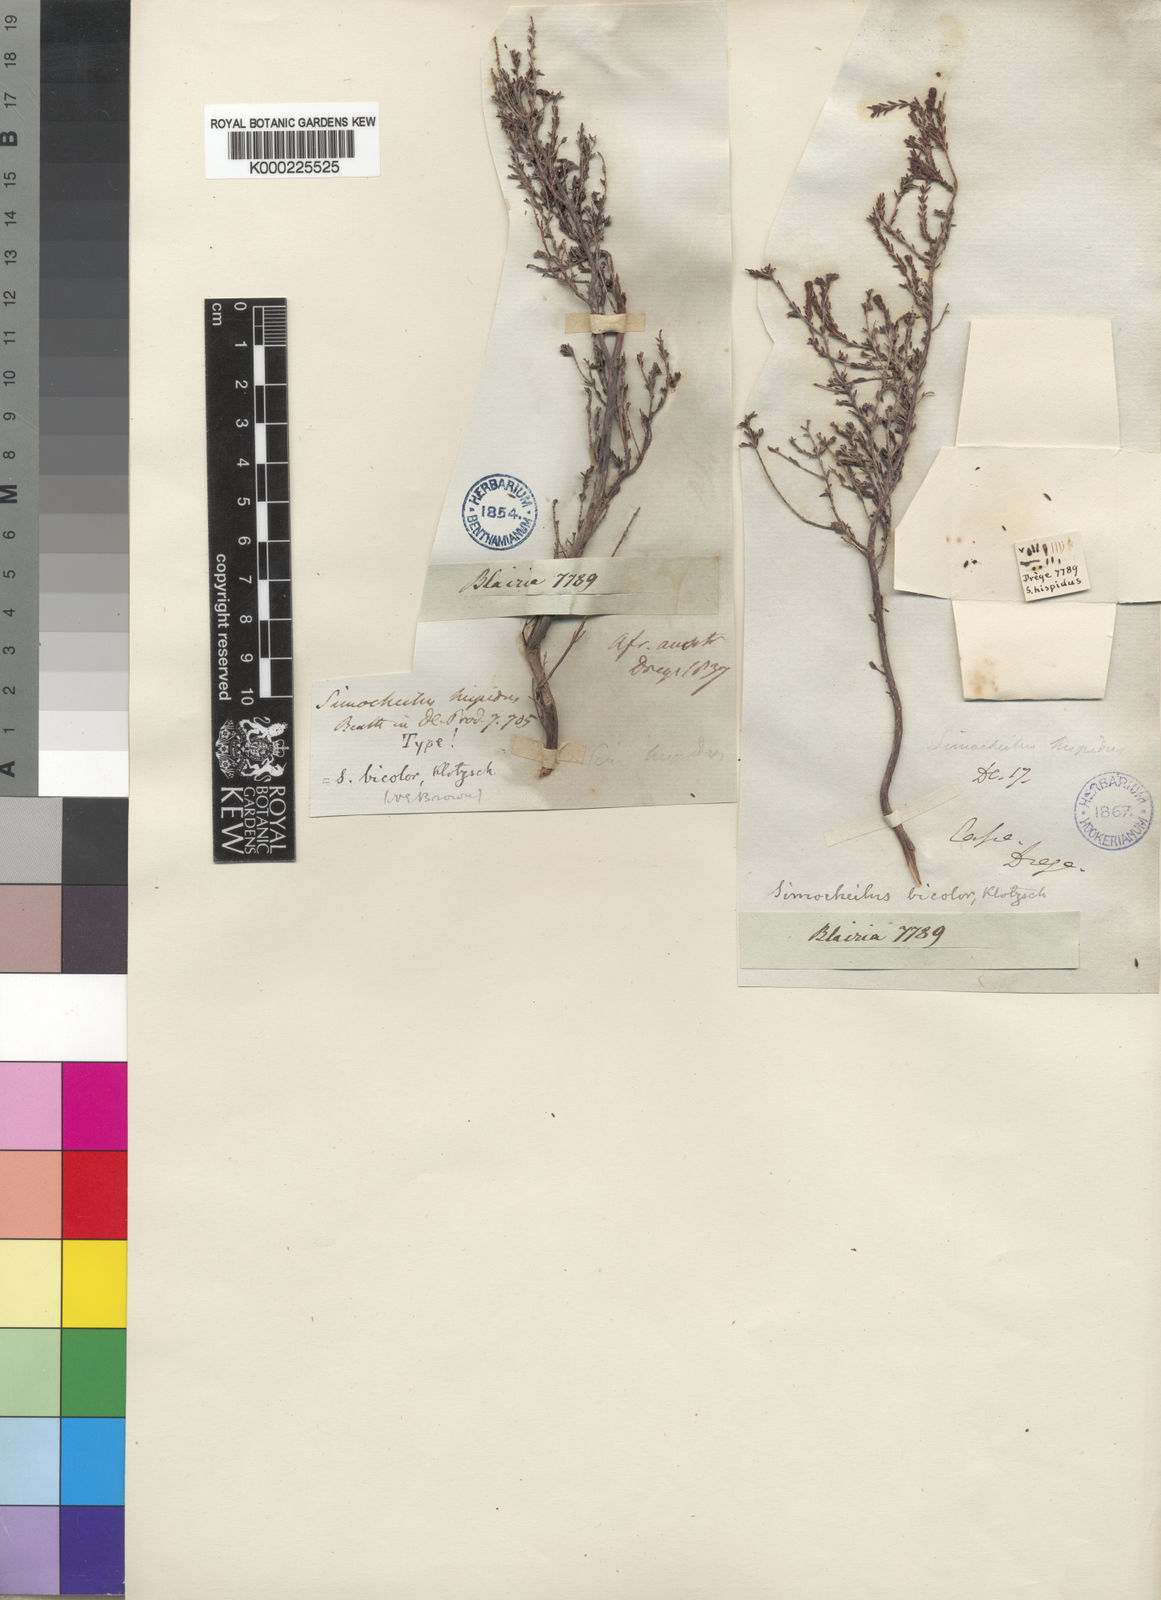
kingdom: Plantae
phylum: Tracheophyta
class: Magnoliopsida
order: Ericales
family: Ericaceae
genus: Erica
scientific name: Erica glabra
